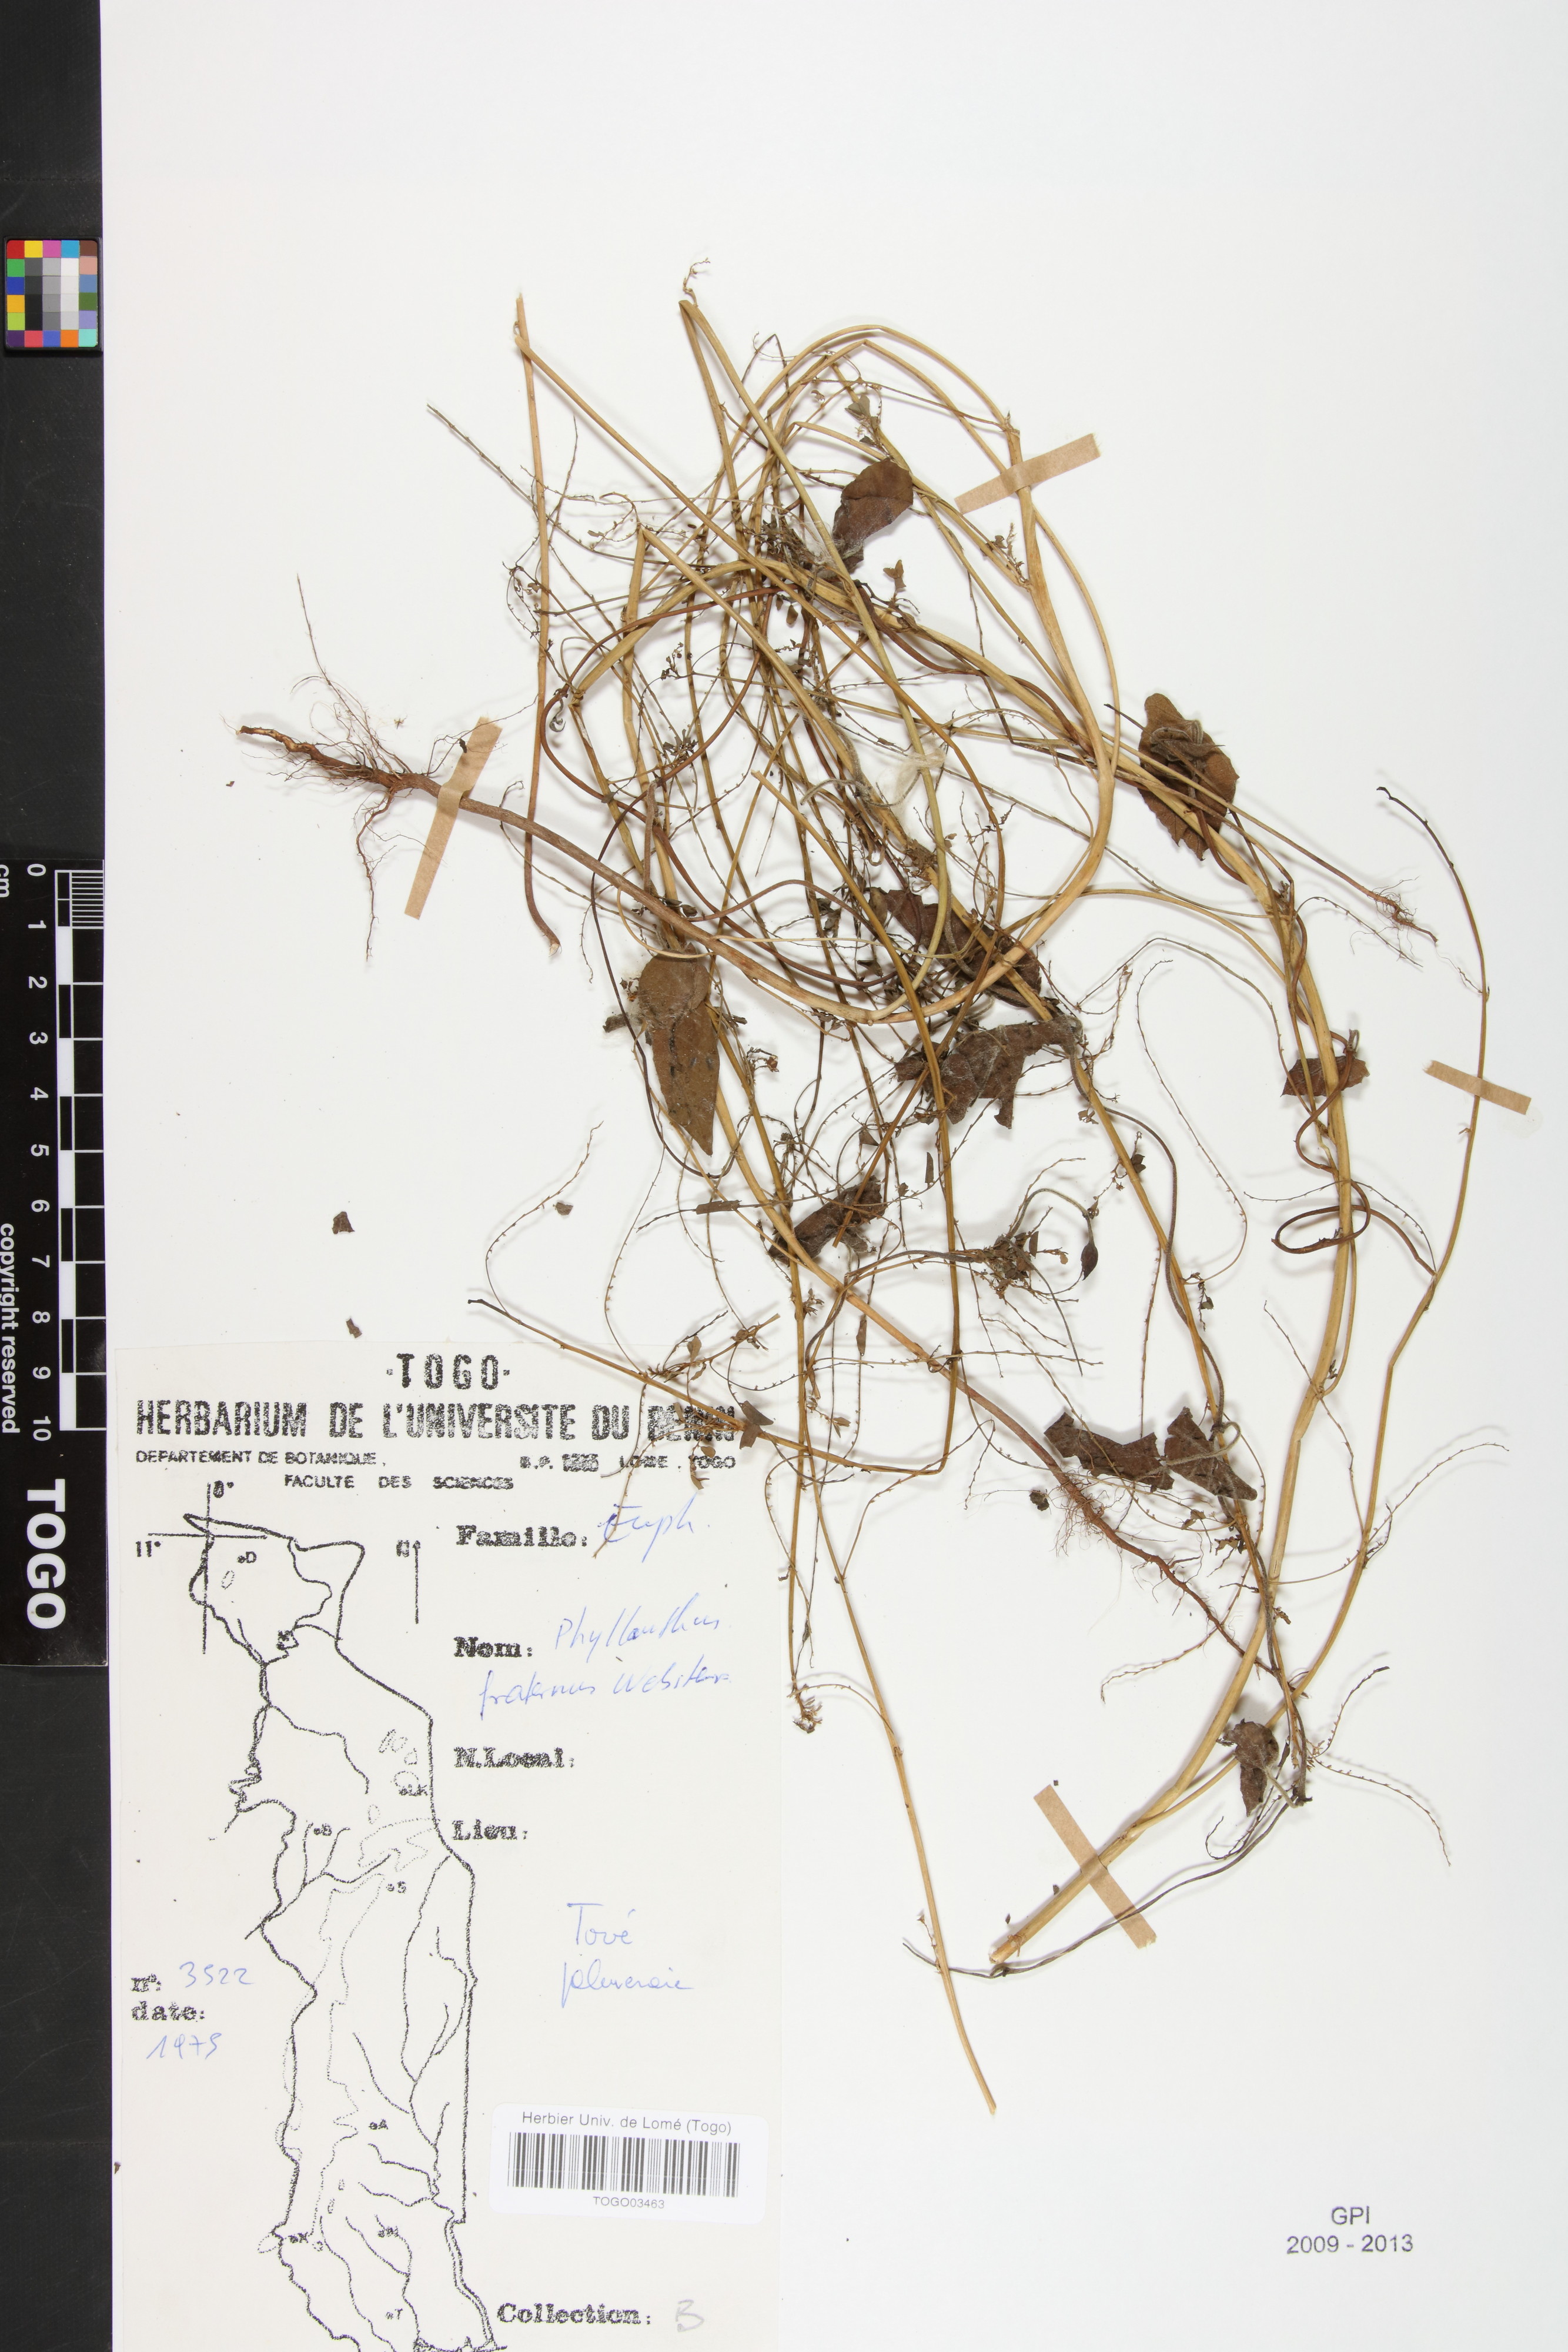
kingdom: Plantae
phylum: Tracheophyta
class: Magnoliopsida
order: Malpighiales
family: Phyllanthaceae
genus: Phyllanthus
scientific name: Phyllanthus fraternus
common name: Gulf leaf-flower
